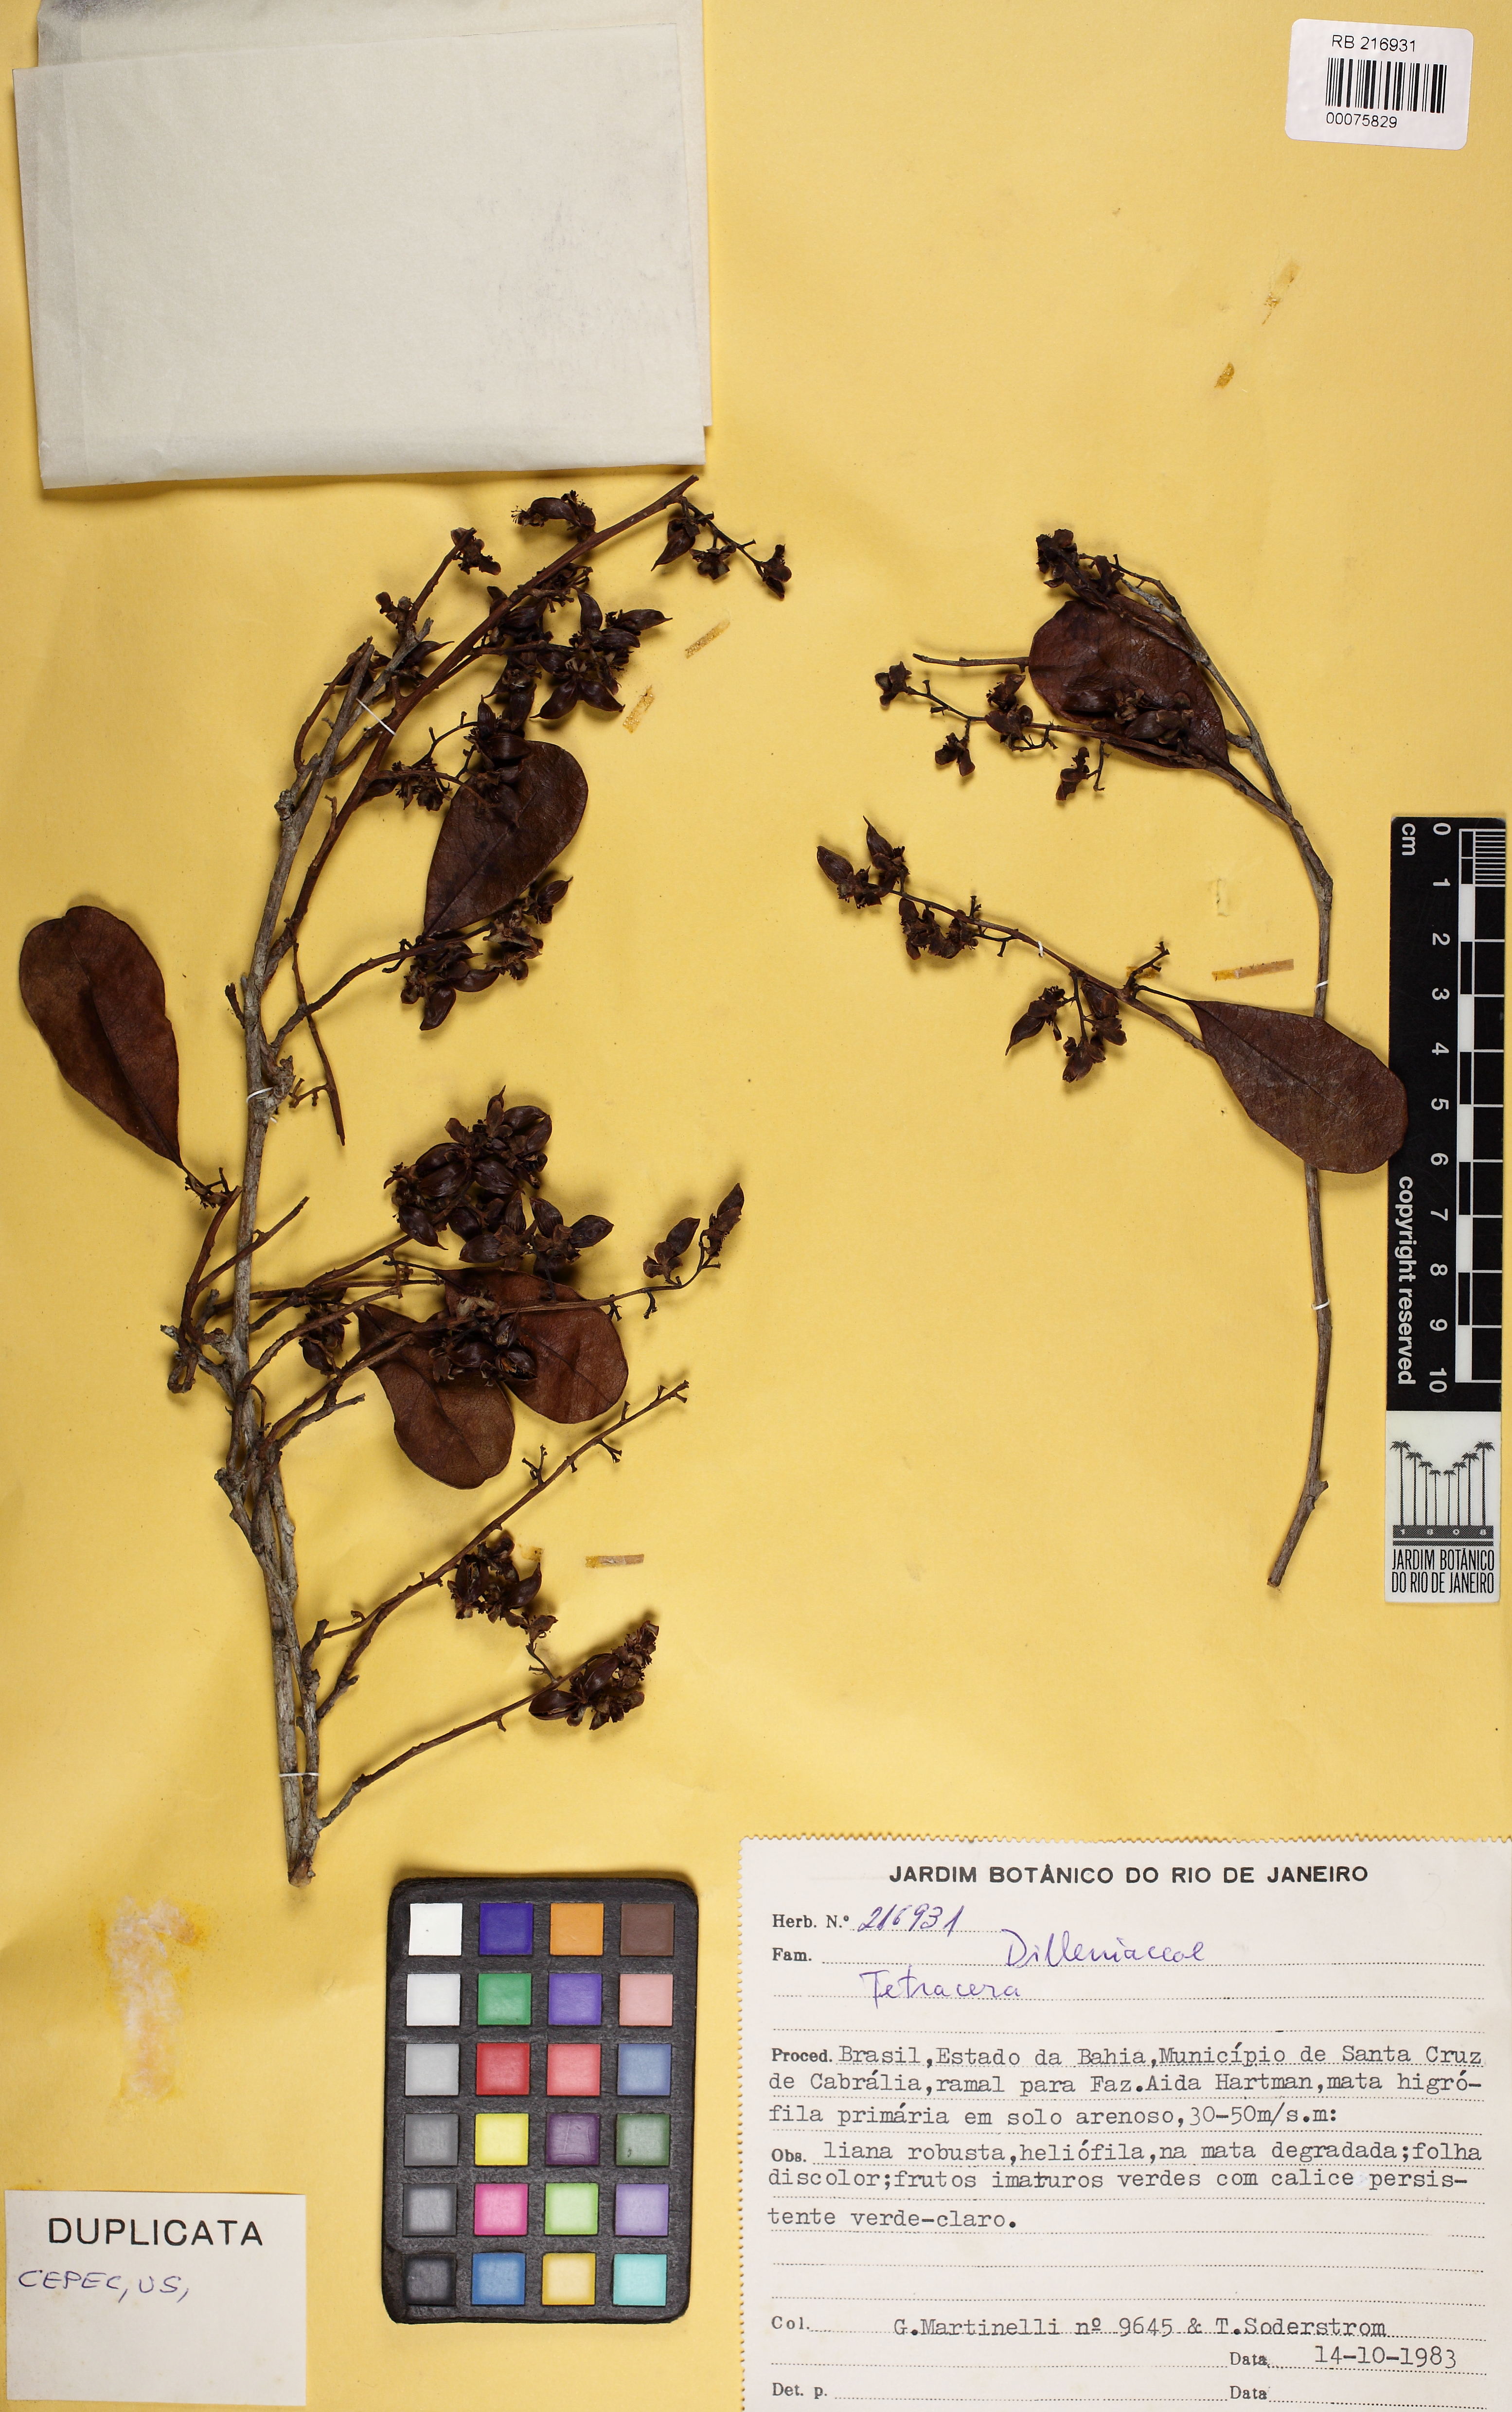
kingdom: Plantae
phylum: Tracheophyta
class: Magnoliopsida
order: Dilleniales
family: Dilleniaceae
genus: Tetracera
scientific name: Tetracera breyniana
